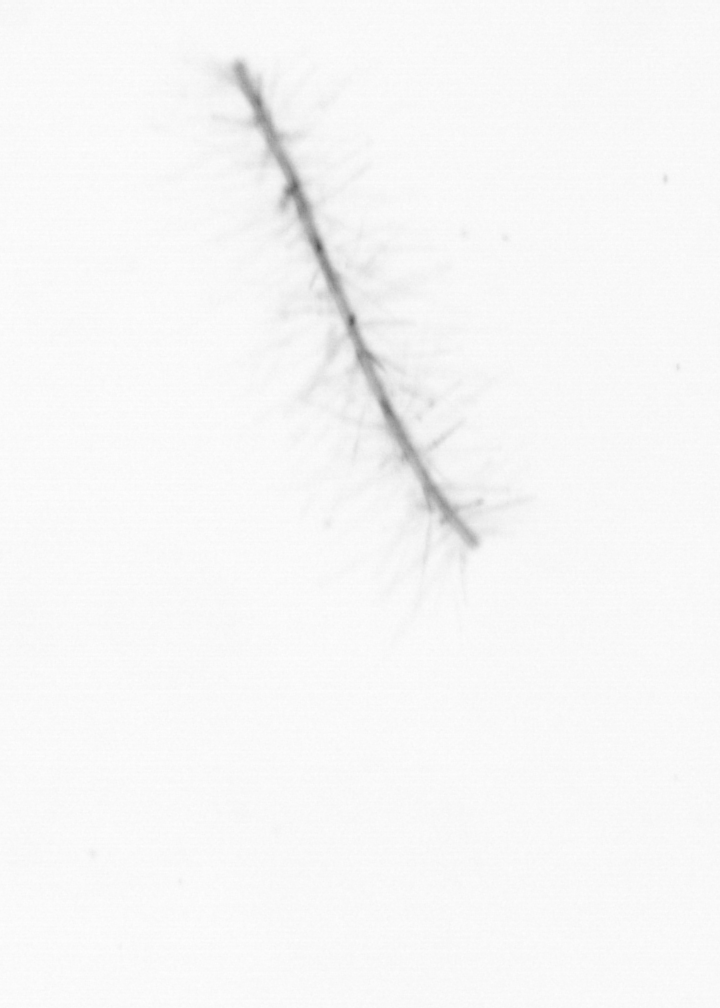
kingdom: Chromista
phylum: Ochrophyta
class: Bacillariophyceae
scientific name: Bacillariophyceae
